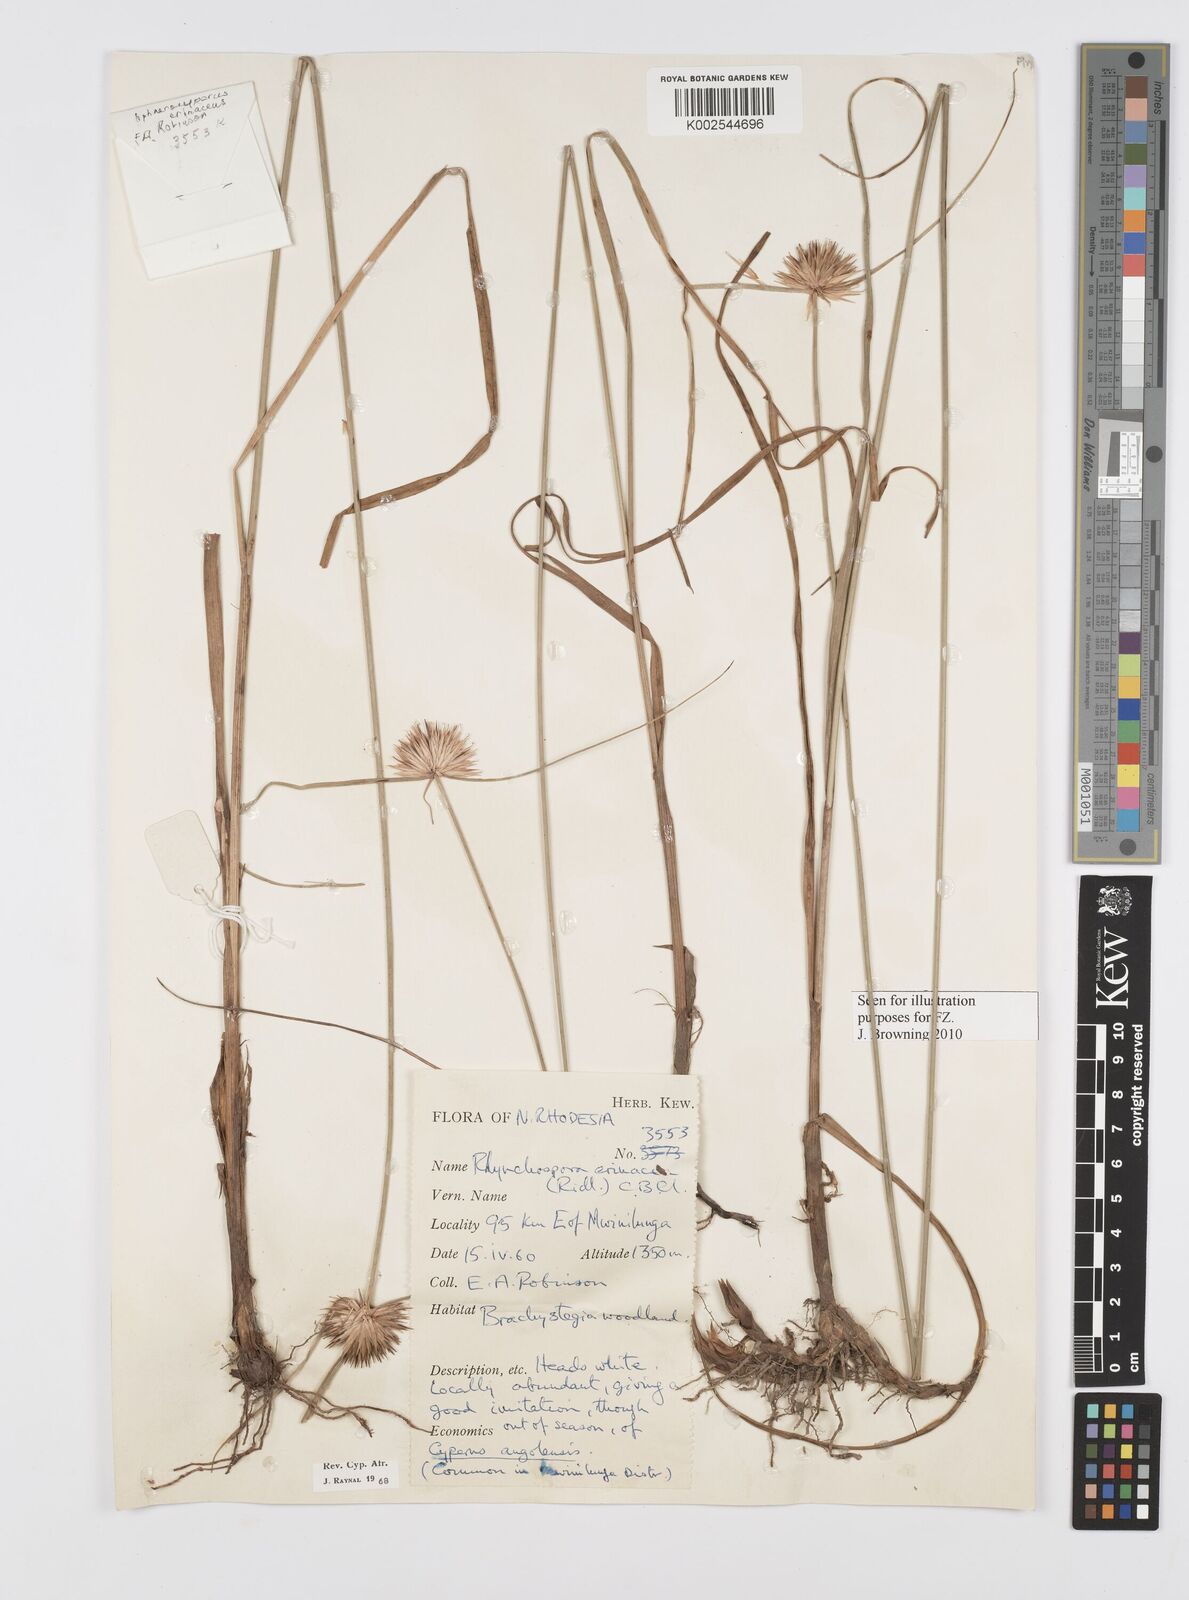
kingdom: Plantae
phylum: Tracheophyta
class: Liliopsida
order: Poales
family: Cyperaceae
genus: Cyperus
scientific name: Cyperus erinaceus
